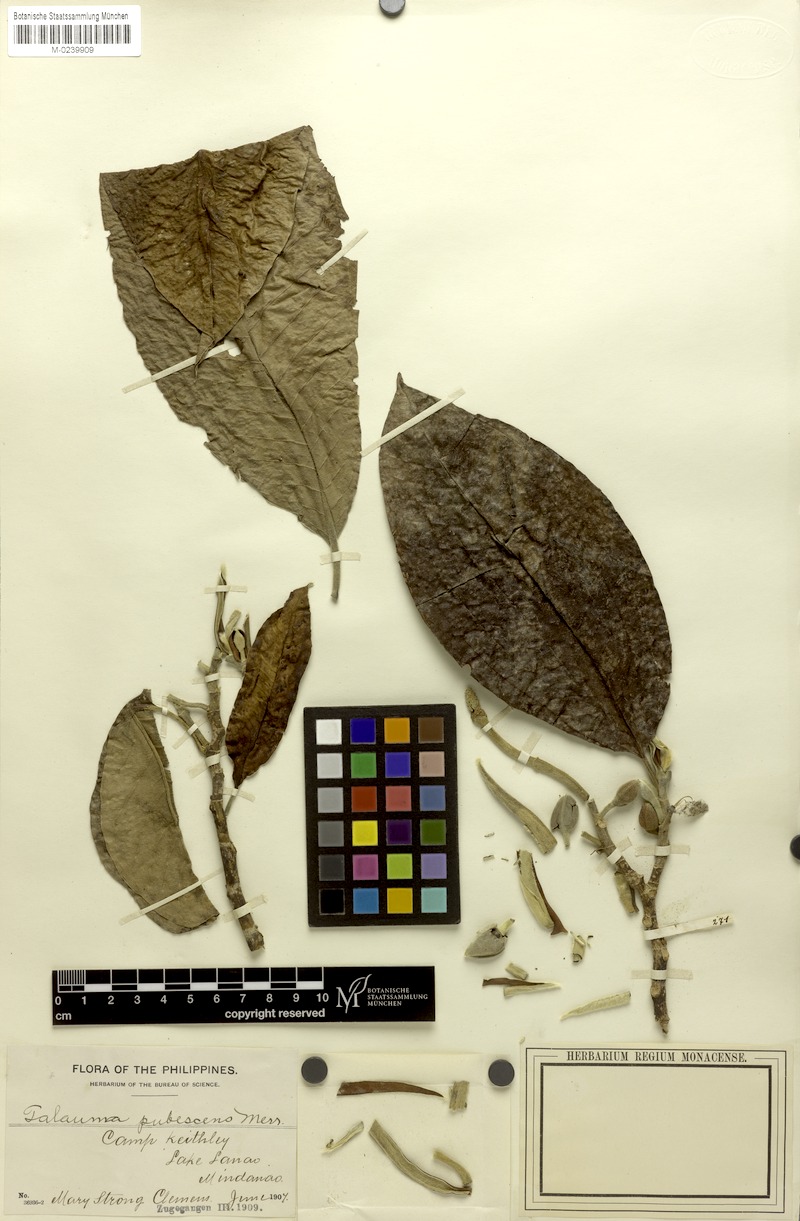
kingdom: Plantae
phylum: Tracheophyta
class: Magnoliopsida
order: Magnoliales
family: Magnoliaceae
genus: Magnolia
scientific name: Magnolia pubescens
